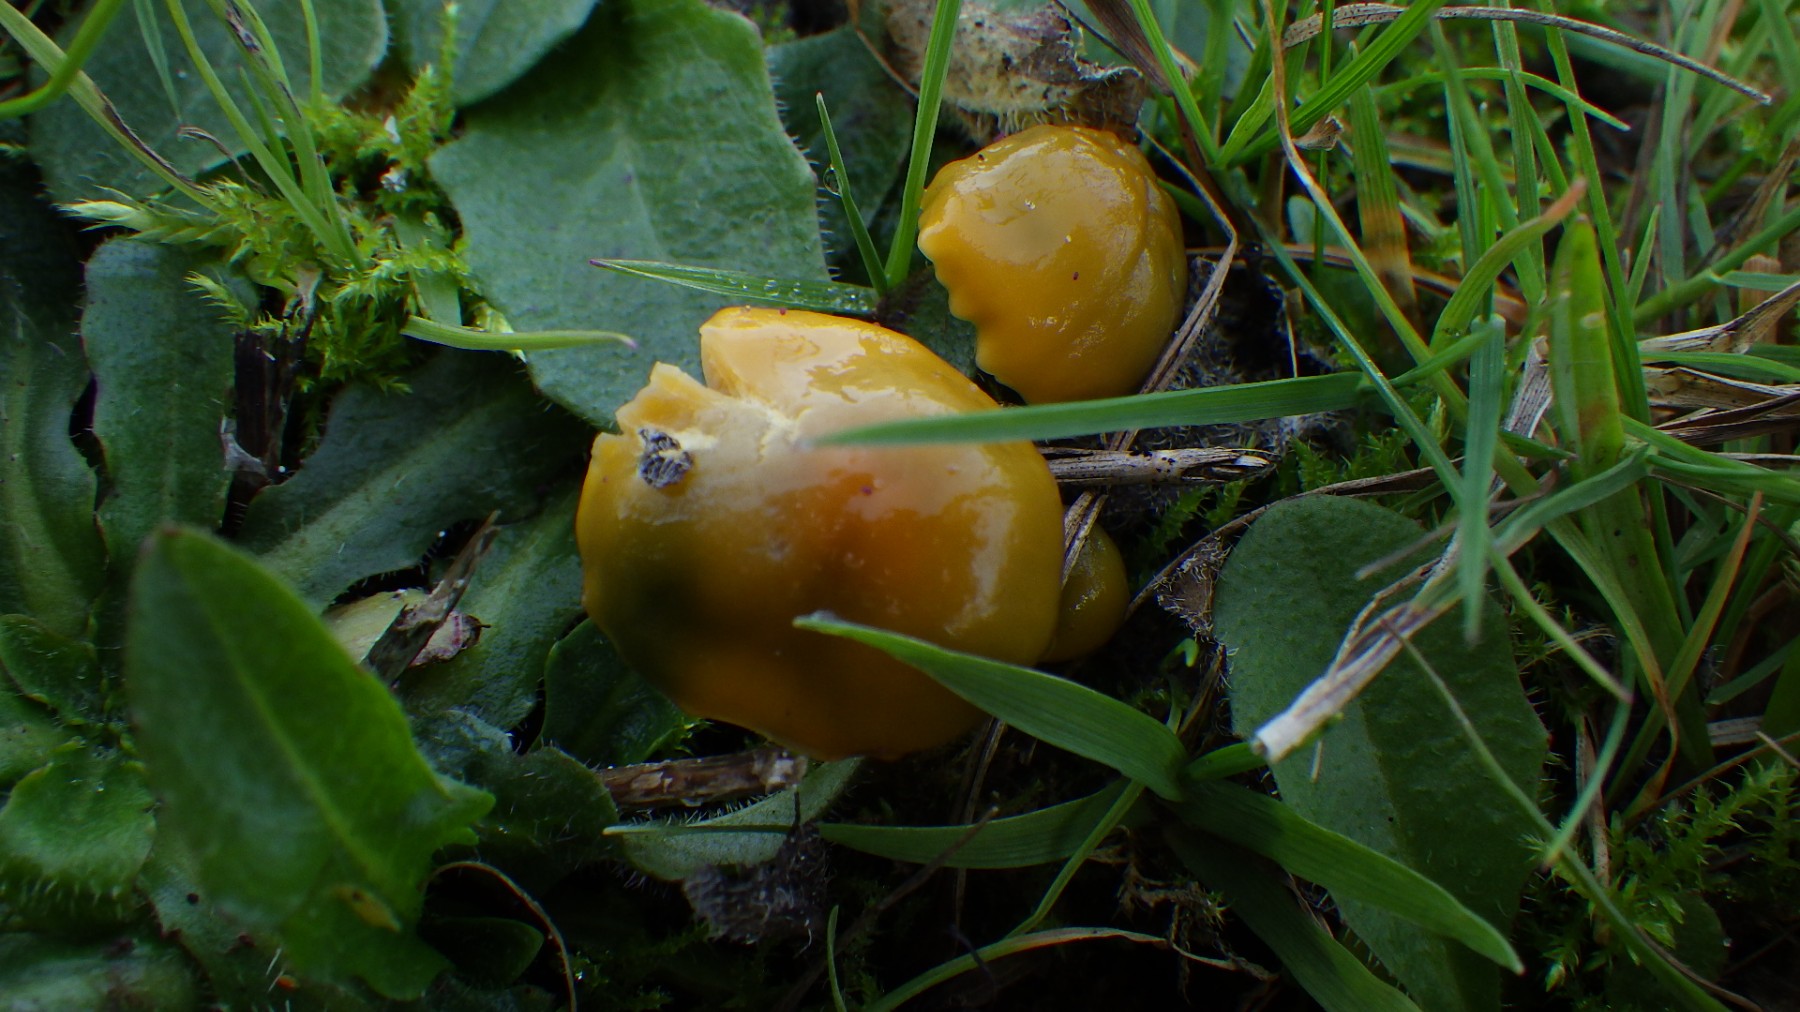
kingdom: Fungi
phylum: Basidiomycota
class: Agaricomycetes
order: Agaricales
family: Hygrophoraceae
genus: Gliophorus
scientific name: Gliophorus psittacinus
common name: papegøje-vokshat
